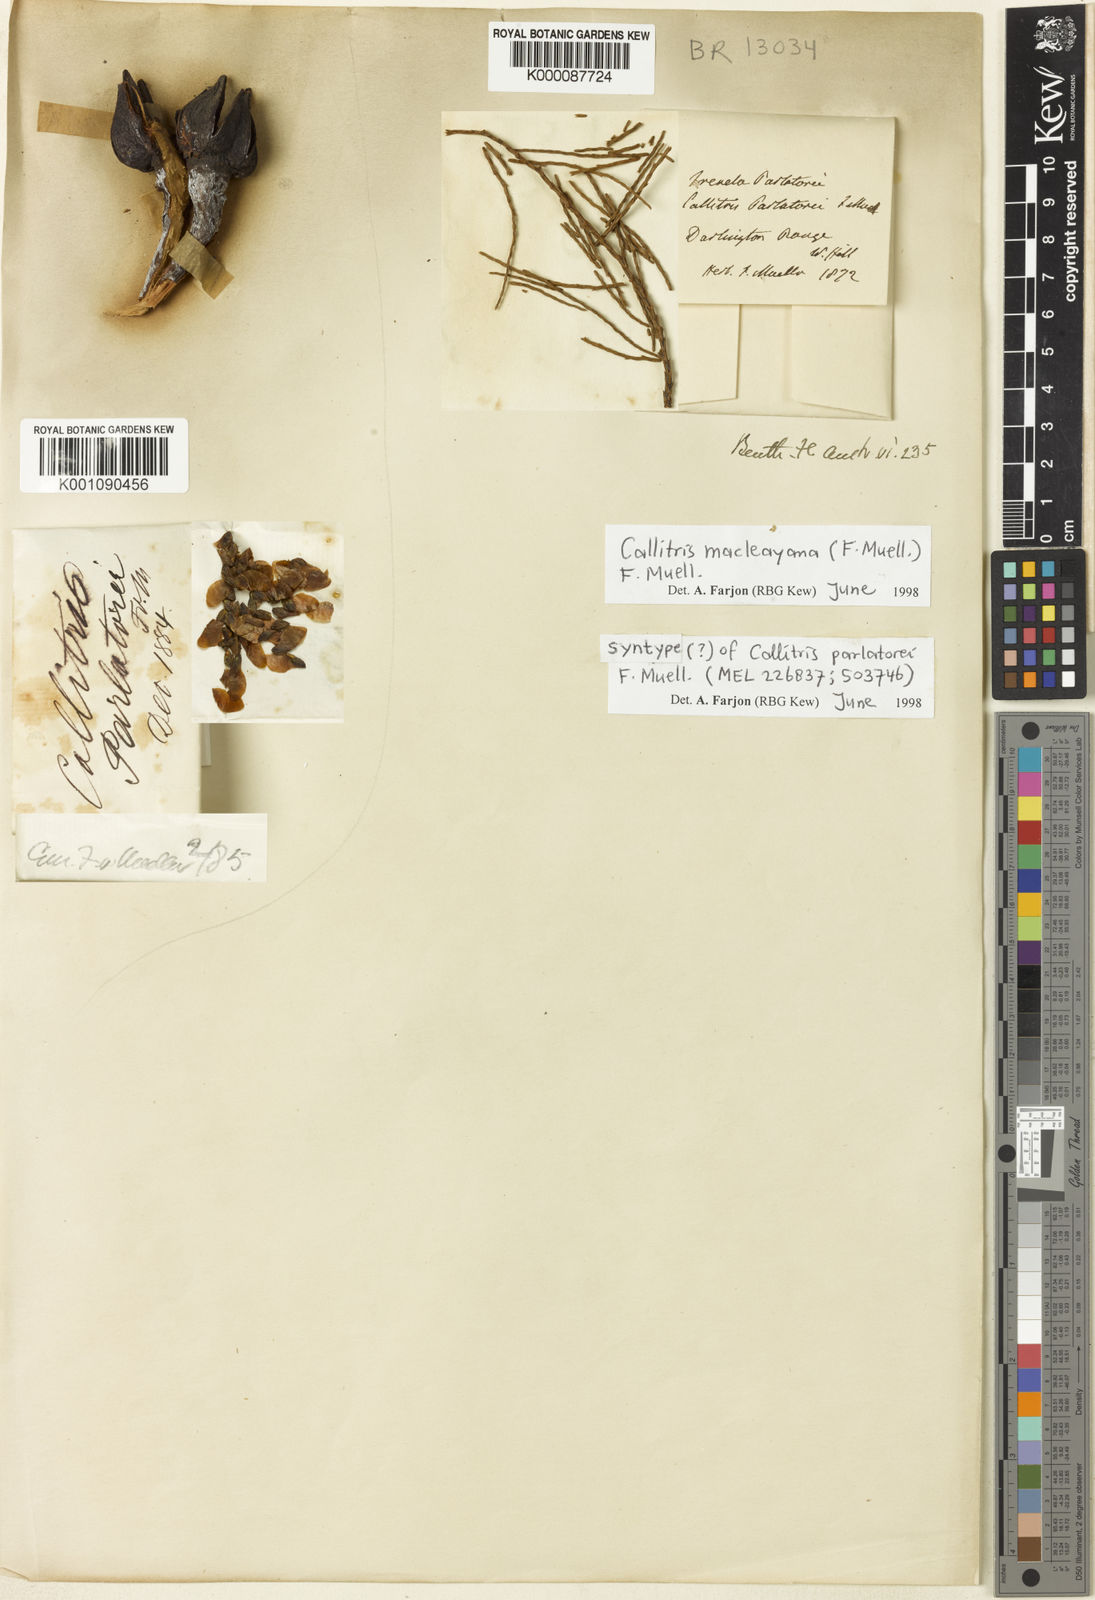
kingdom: Plantae
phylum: Tracheophyta
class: Pinopsida
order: Pinales
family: Cupressaceae
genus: Callitris
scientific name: Callitris macleayana
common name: Brush cypress pine
